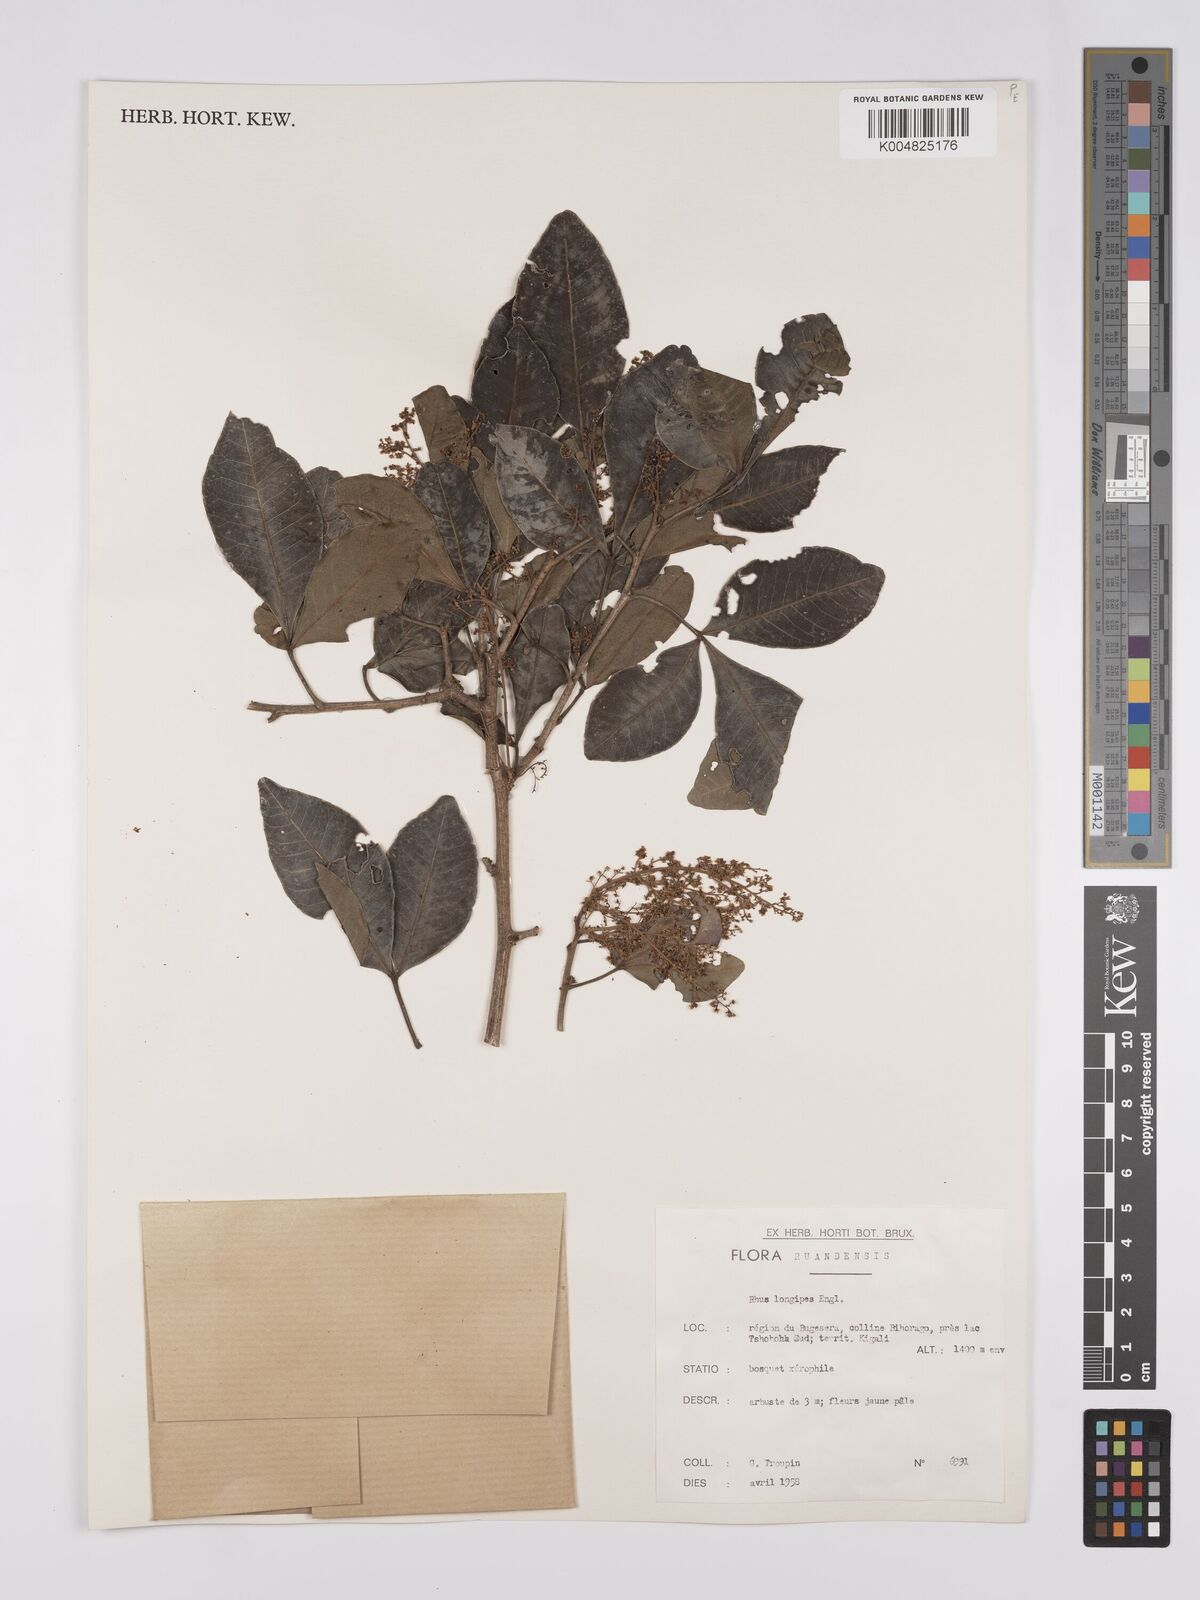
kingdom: Plantae
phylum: Tracheophyta
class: Magnoliopsida
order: Sapindales
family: Anacardiaceae
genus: Searsia
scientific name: Searsia longipes
